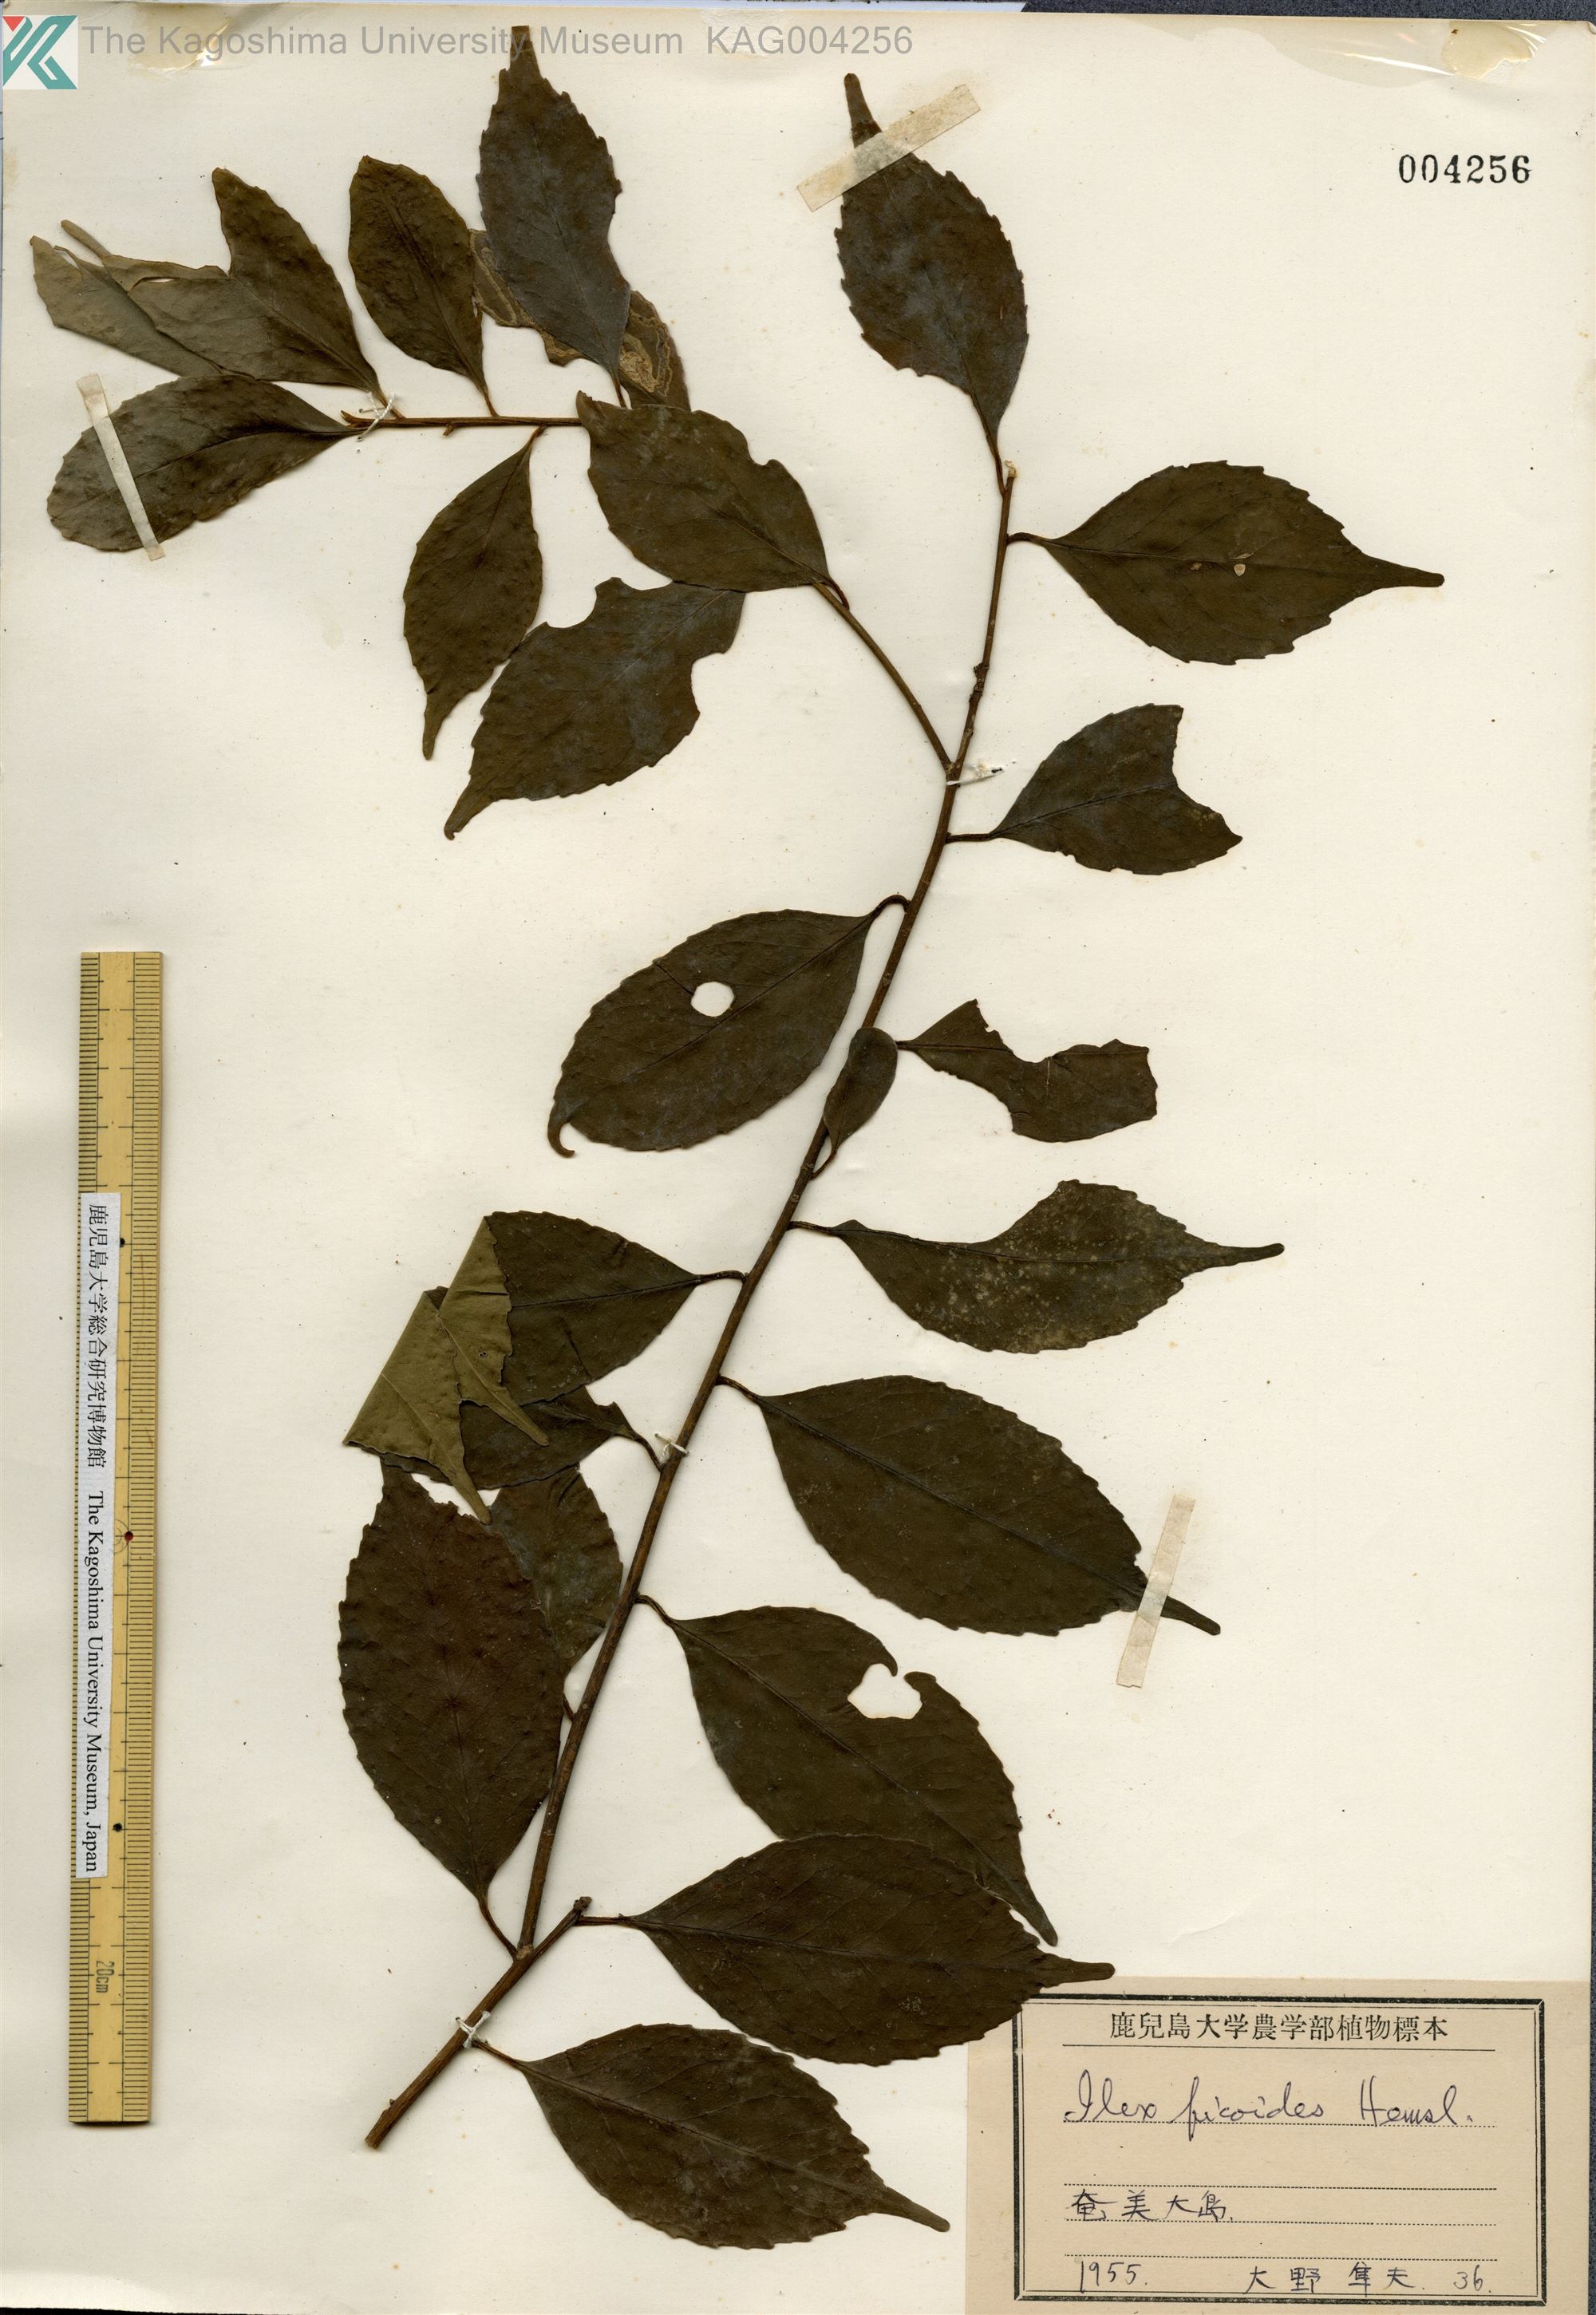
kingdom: Plantae
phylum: Tracheophyta
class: Magnoliopsida
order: Aquifoliales
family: Aquifoliaceae
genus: Ilex
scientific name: Ilex warburgii
